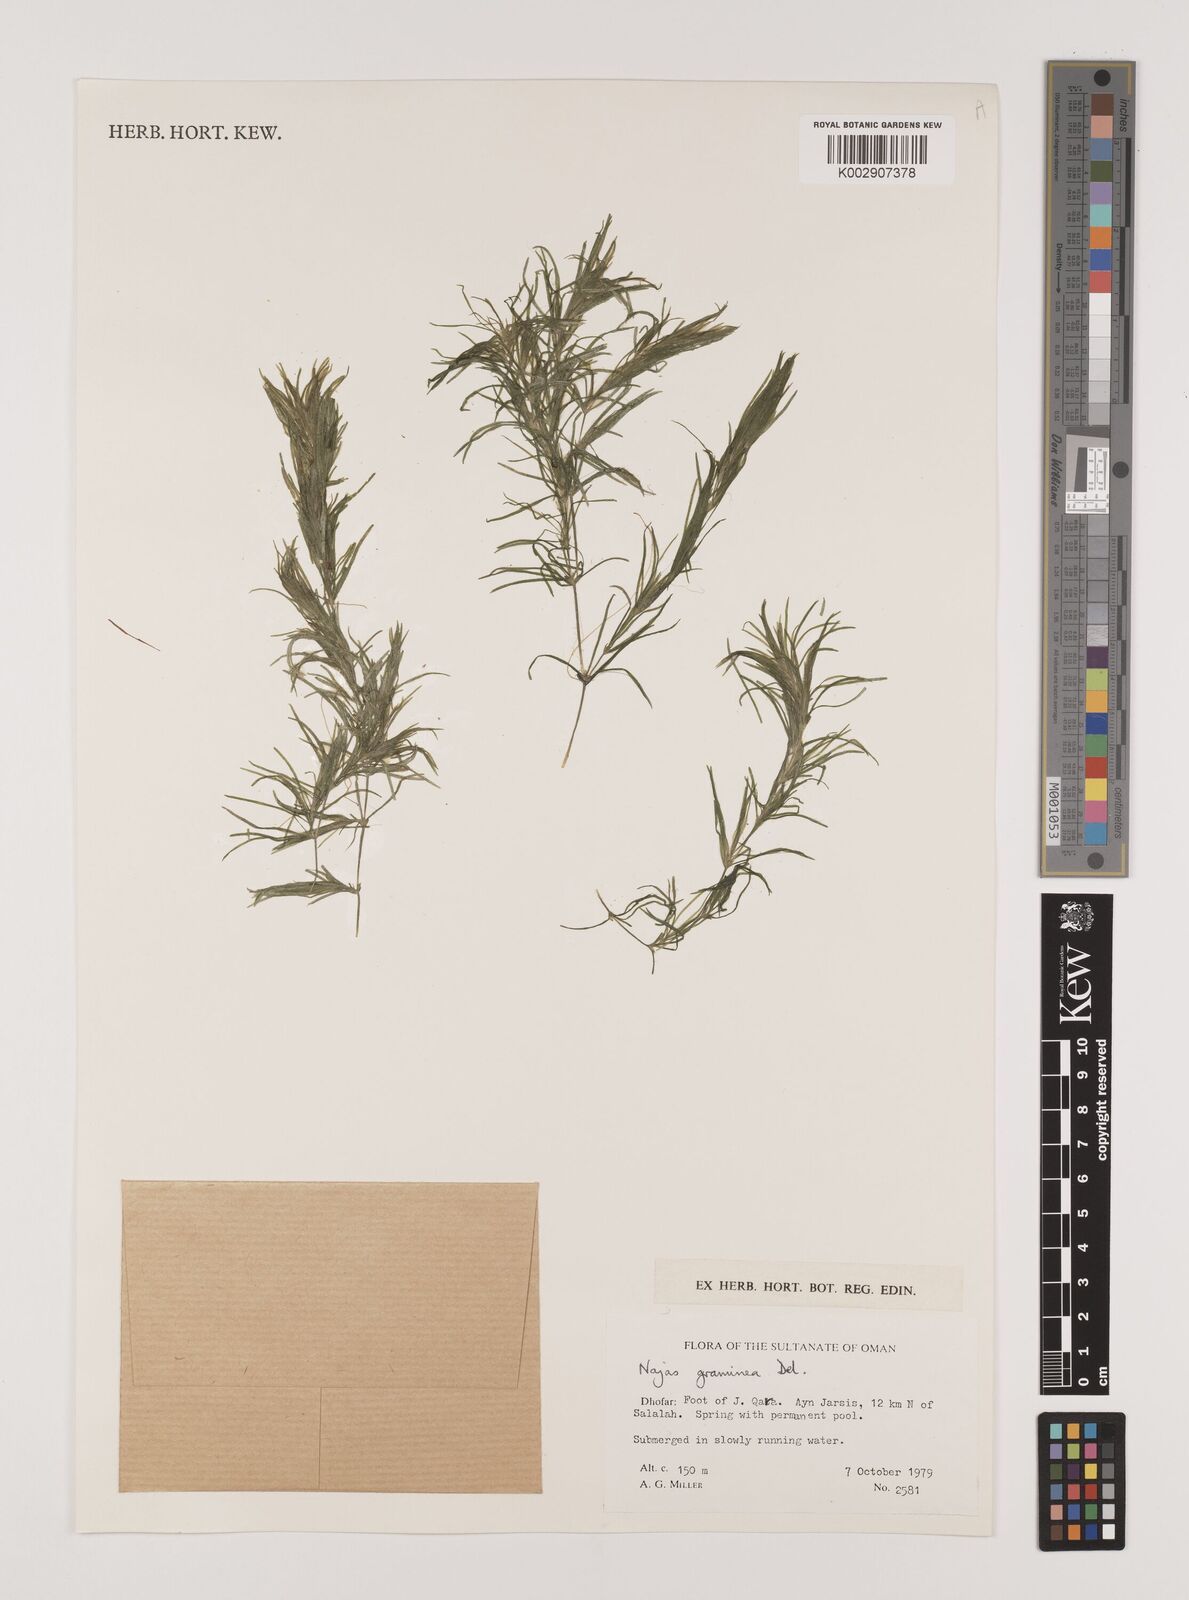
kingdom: Plantae
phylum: Tracheophyta
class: Liliopsida
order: Alismatales
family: Hydrocharitaceae
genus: Najas
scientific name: Najas graminea
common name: Ricefield waternymph
